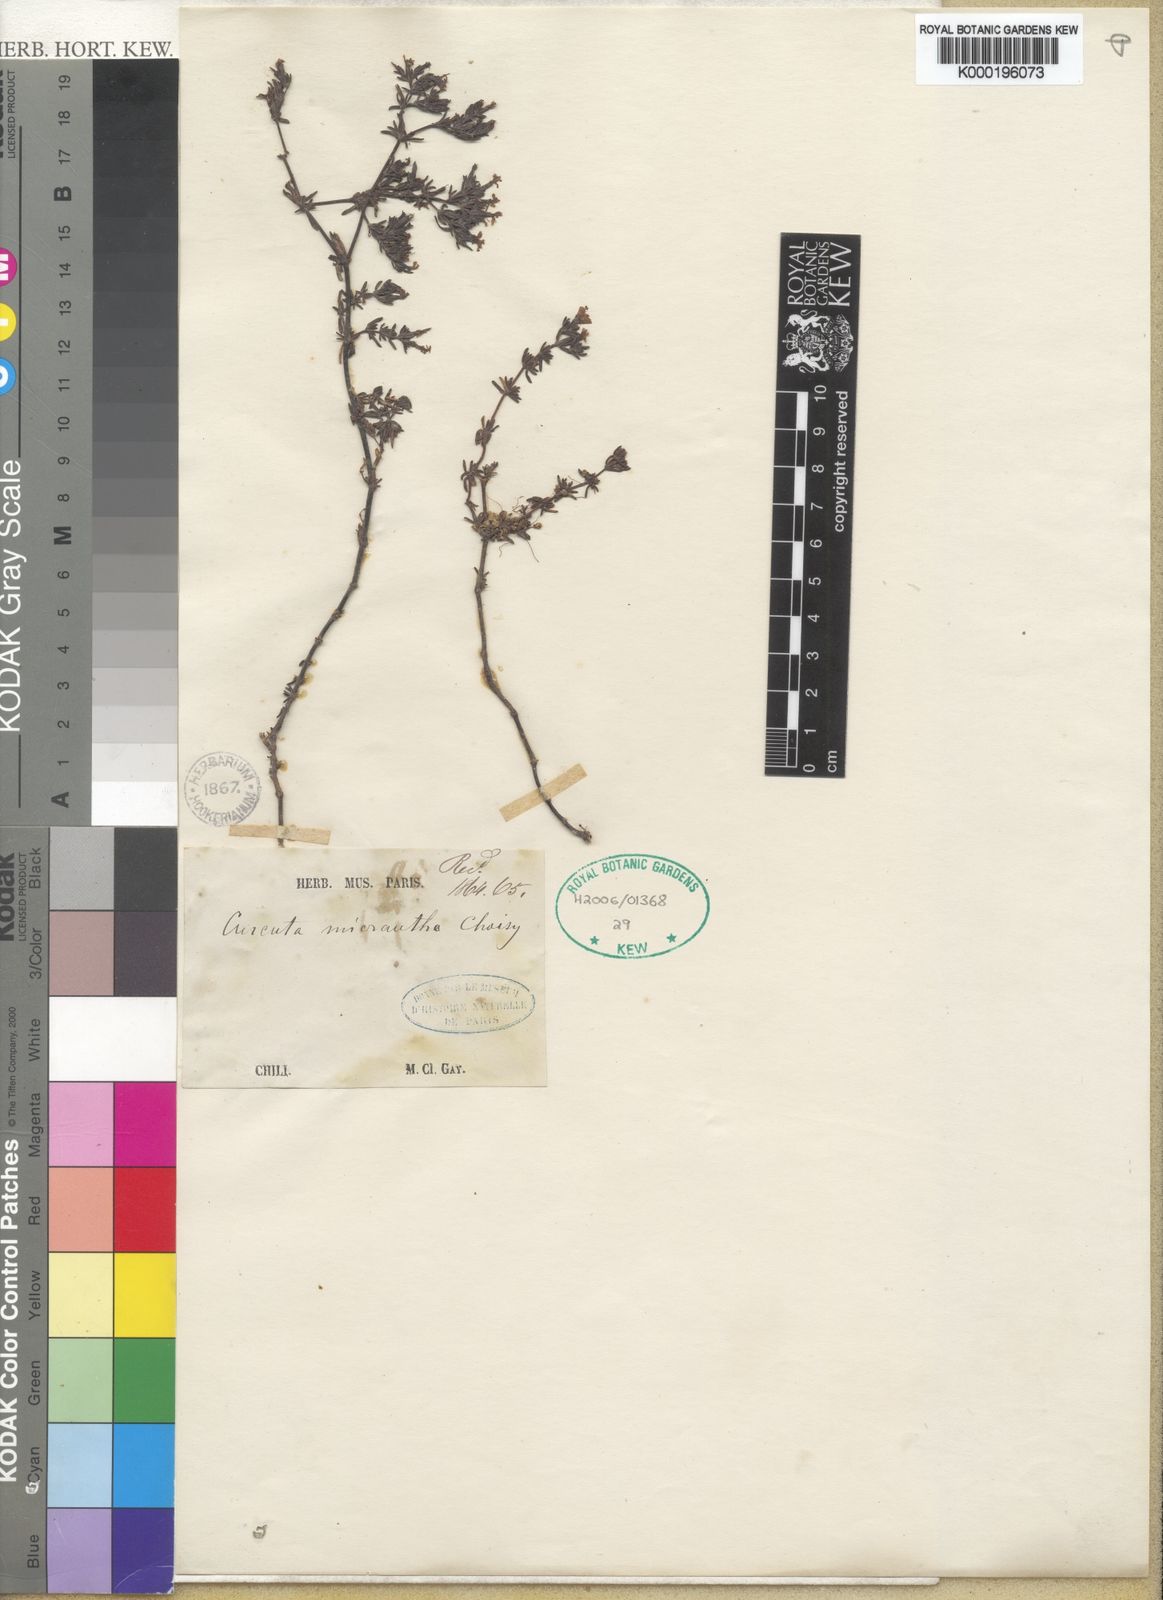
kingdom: Plantae
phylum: Tracheophyta
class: Magnoliopsida
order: Solanales
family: Convolvulaceae
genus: Cuscuta
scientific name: Cuscuta micrantha
